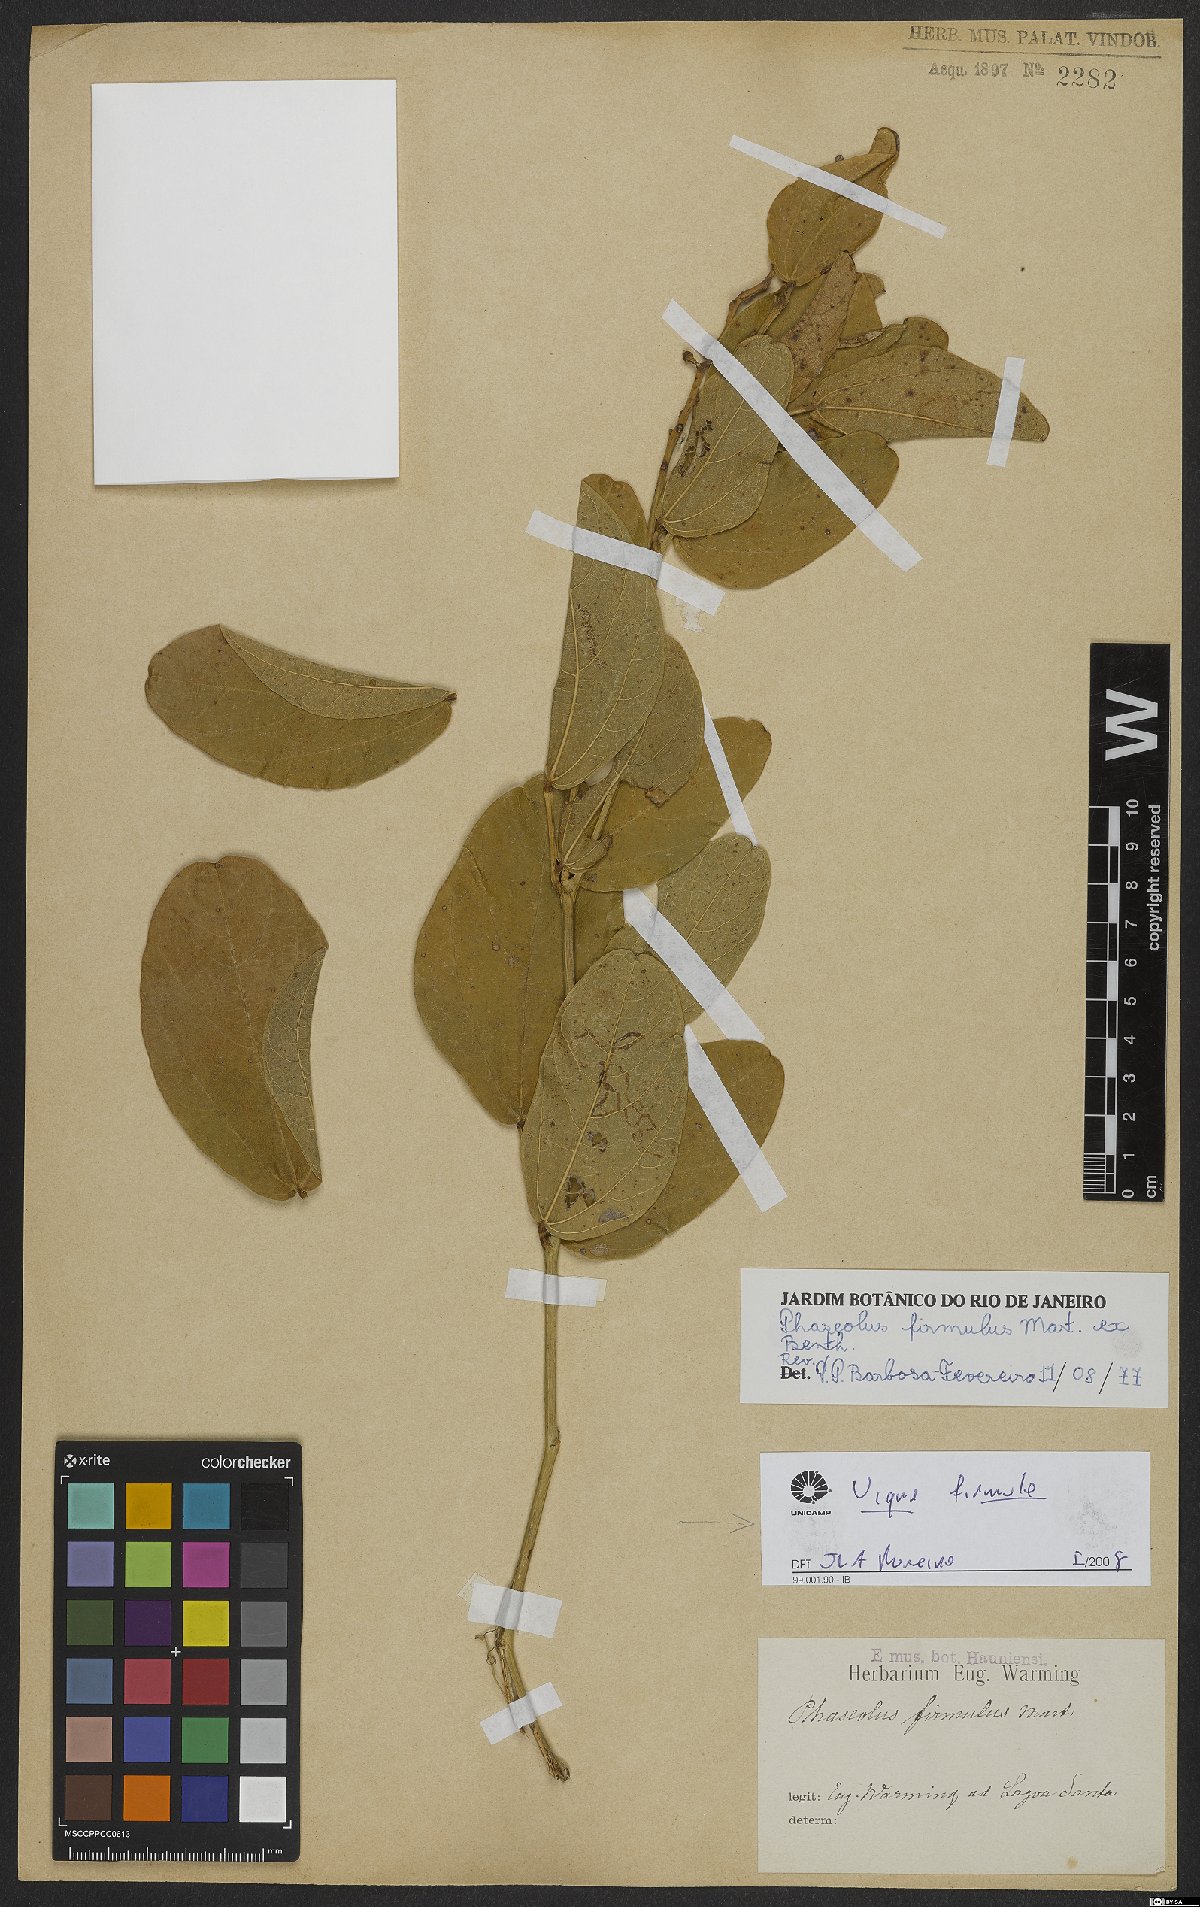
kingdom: Plantae
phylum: Tracheophyta
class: Magnoliopsida
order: Fabales
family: Fabaceae
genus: Ancistrotropis
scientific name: Ancistrotropis firmula
